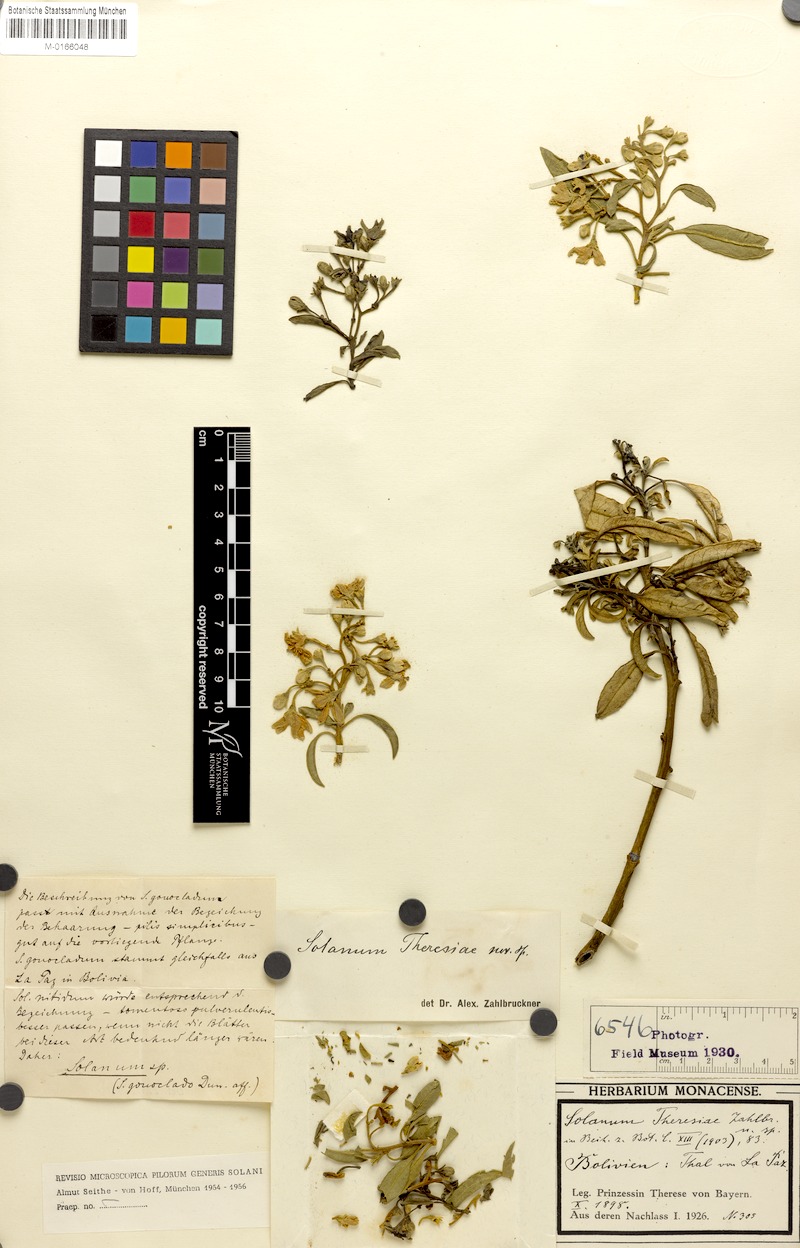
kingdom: Plantae
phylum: Tracheophyta
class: Magnoliopsida
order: Solanales
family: Solanaceae
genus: Solanum
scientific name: Solanum nitidum
